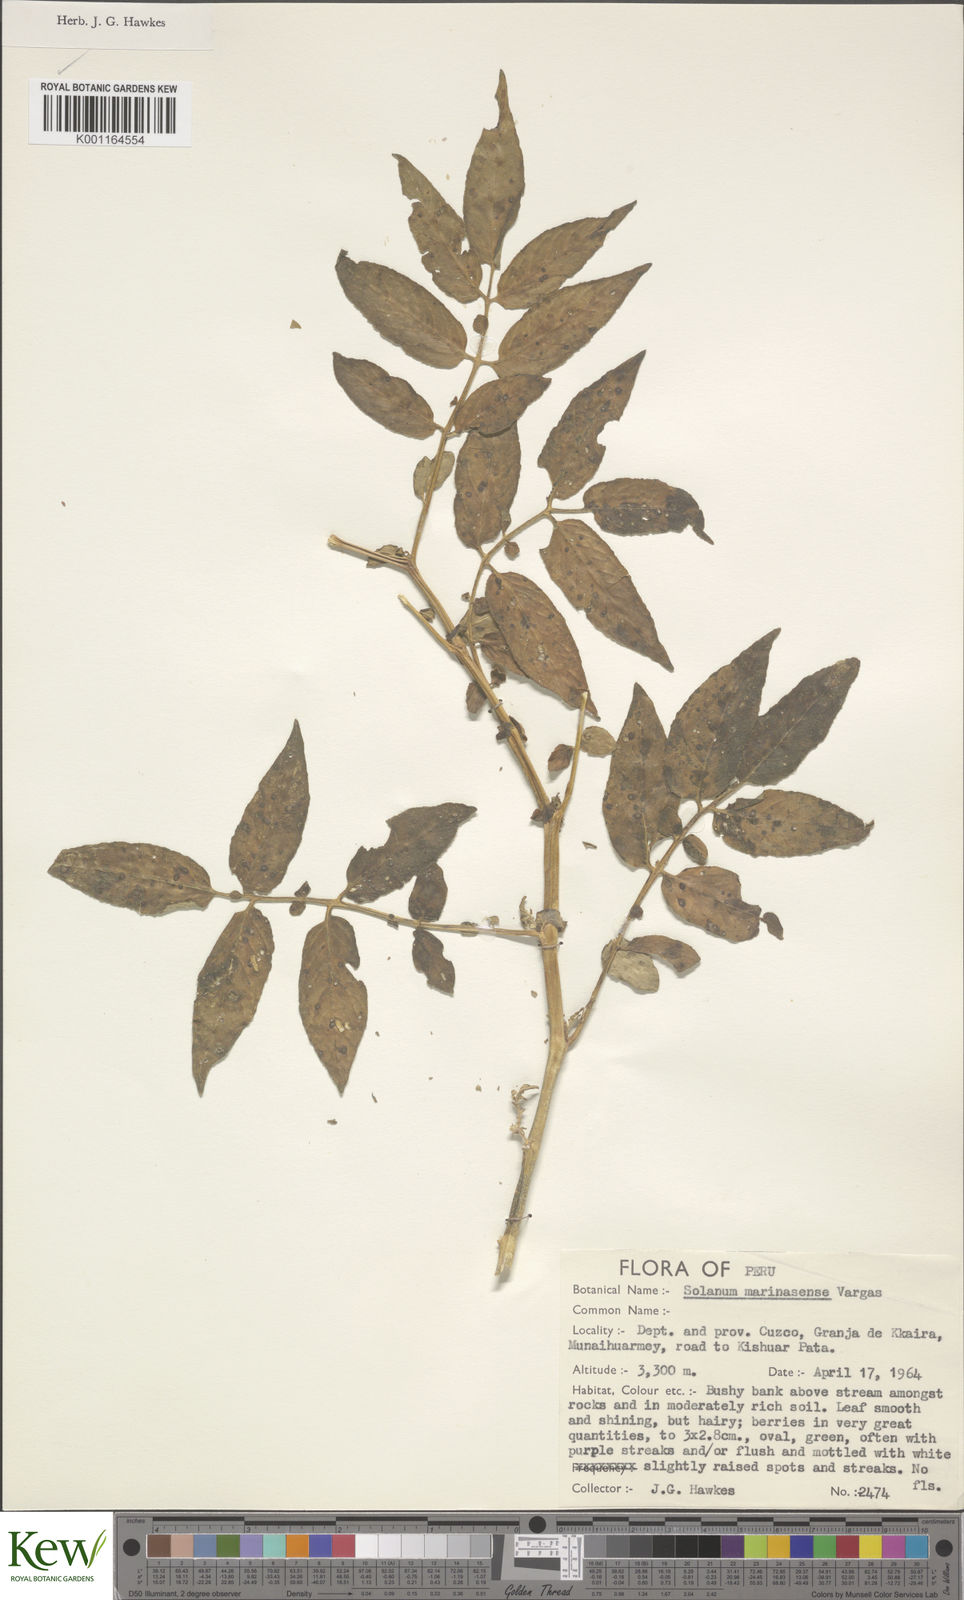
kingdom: Plantae
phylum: Tracheophyta
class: Magnoliopsida
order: Solanales
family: Solanaceae
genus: Solanum
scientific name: Solanum candolleanum
